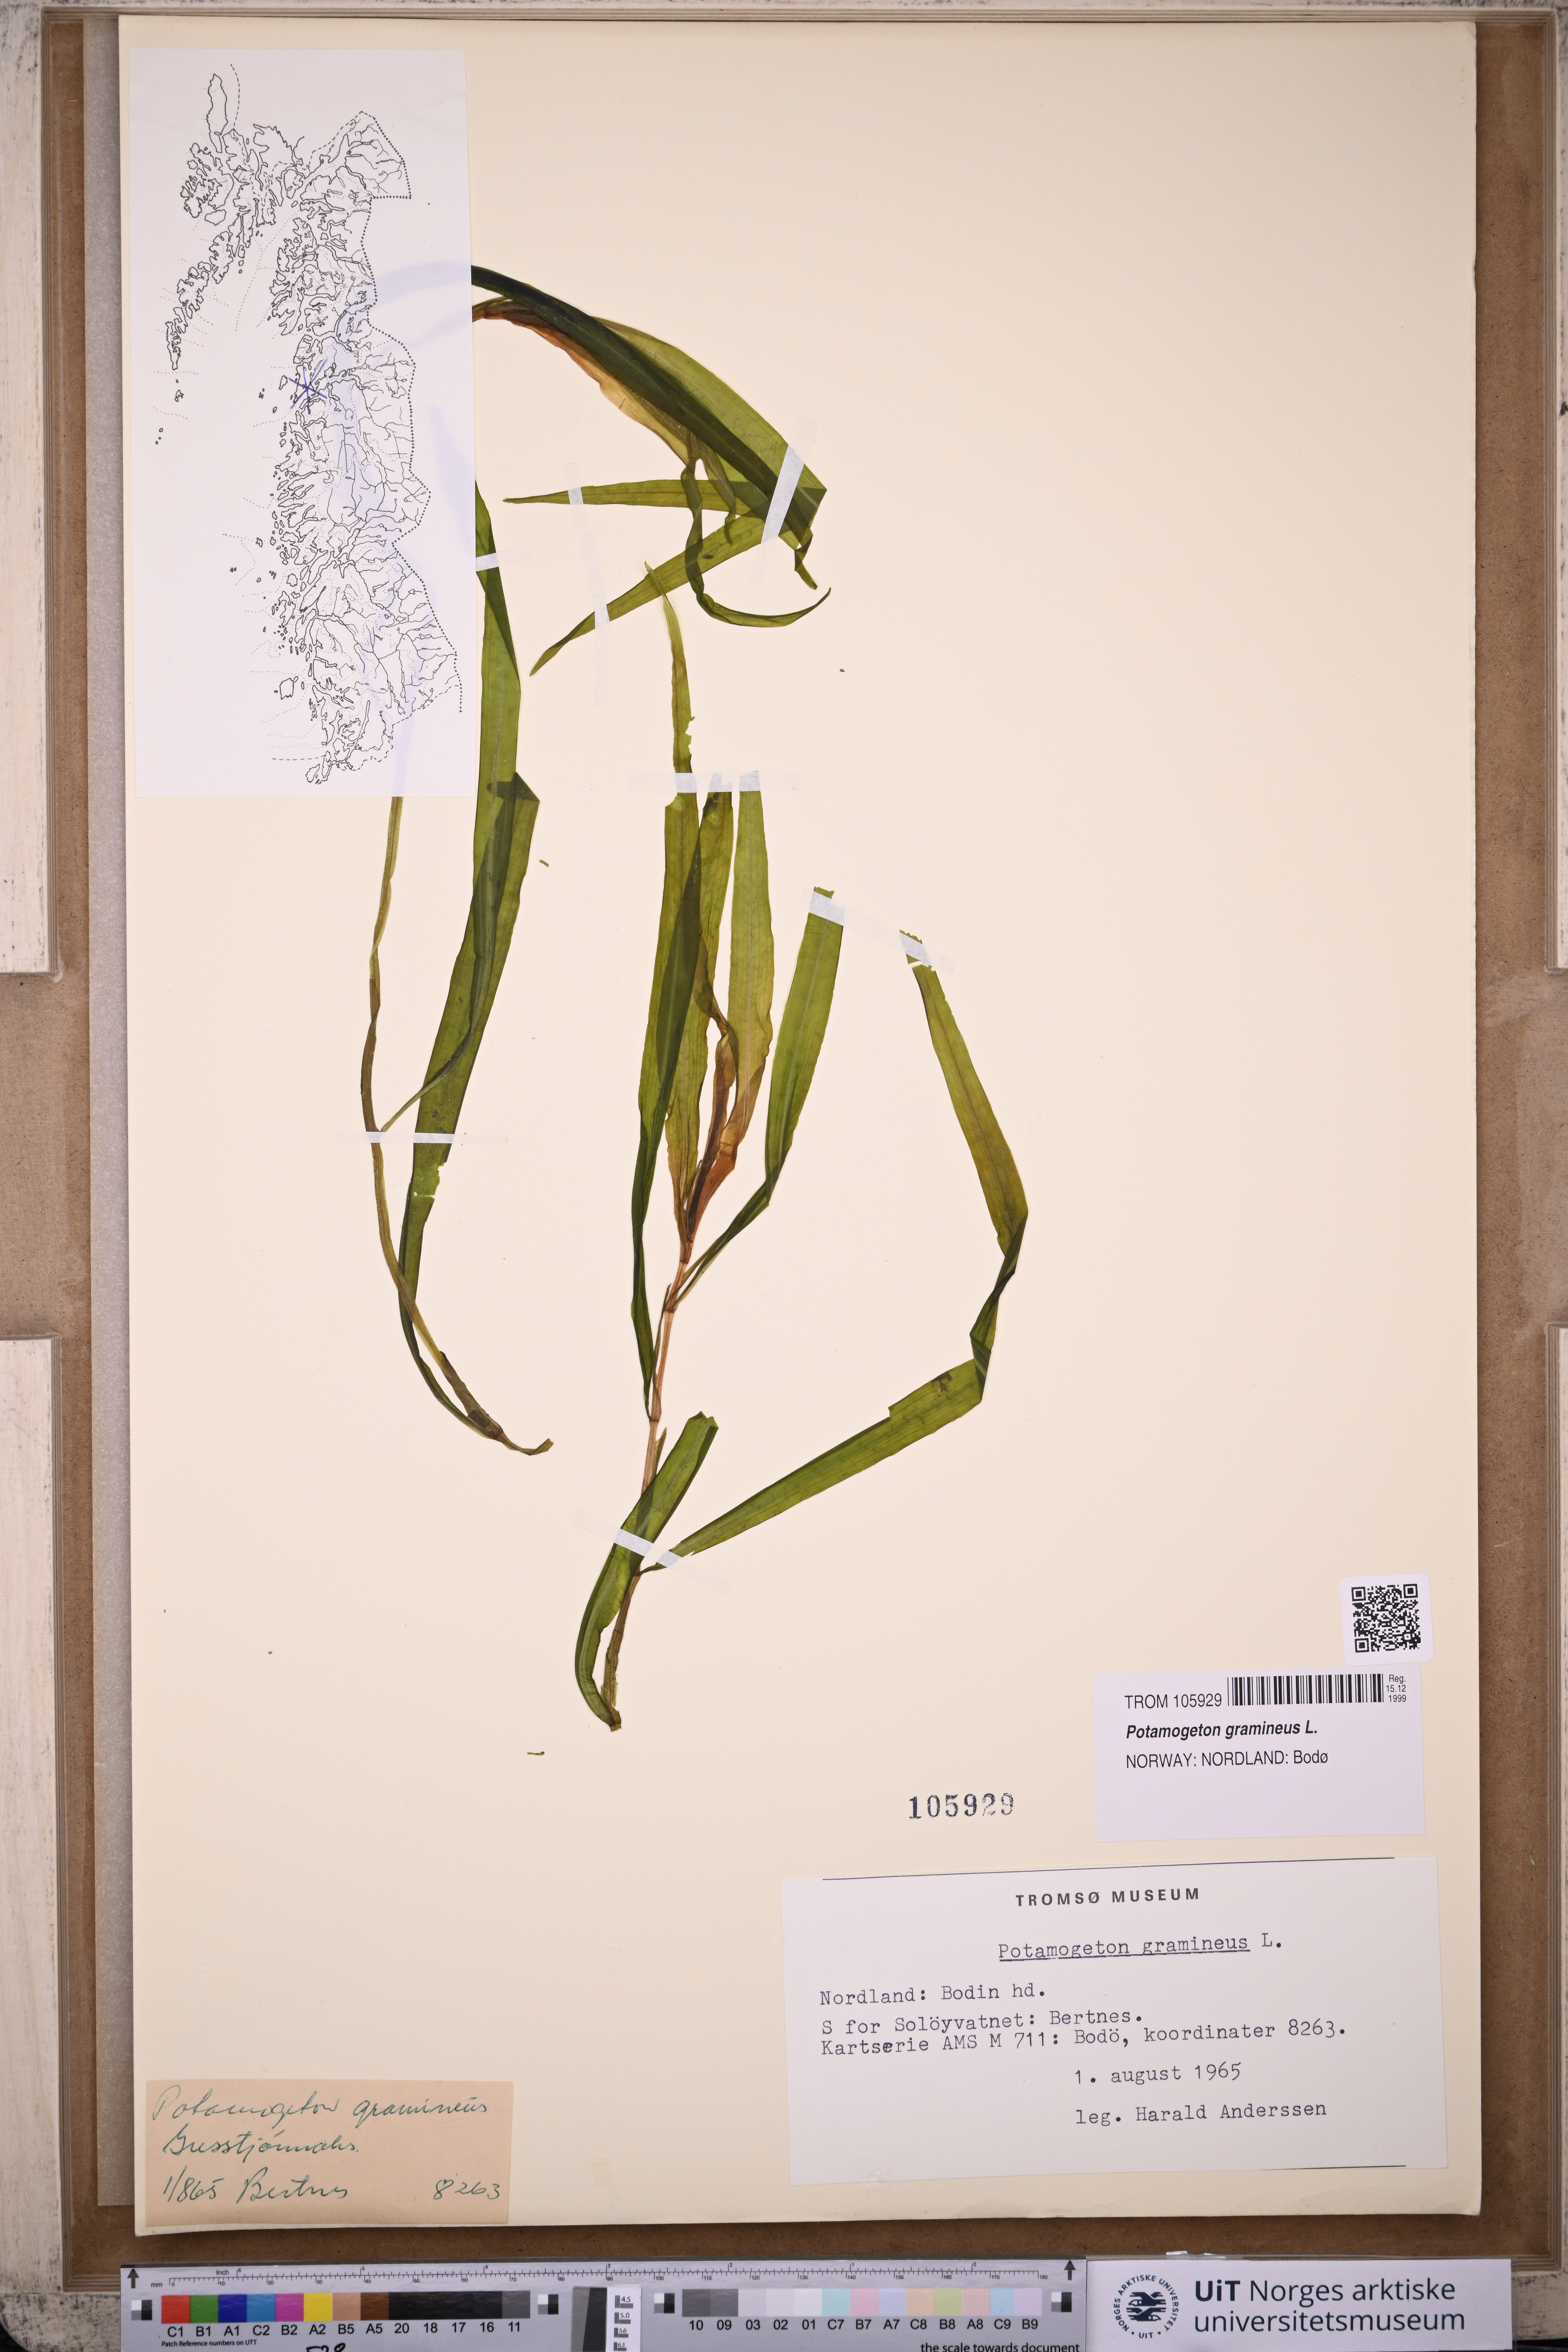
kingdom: Plantae
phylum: Tracheophyta
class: Liliopsida
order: Alismatales
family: Potamogetonaceae
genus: Potamogeton
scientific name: Potamogeton gramineus
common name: Various-leaved pondweed
